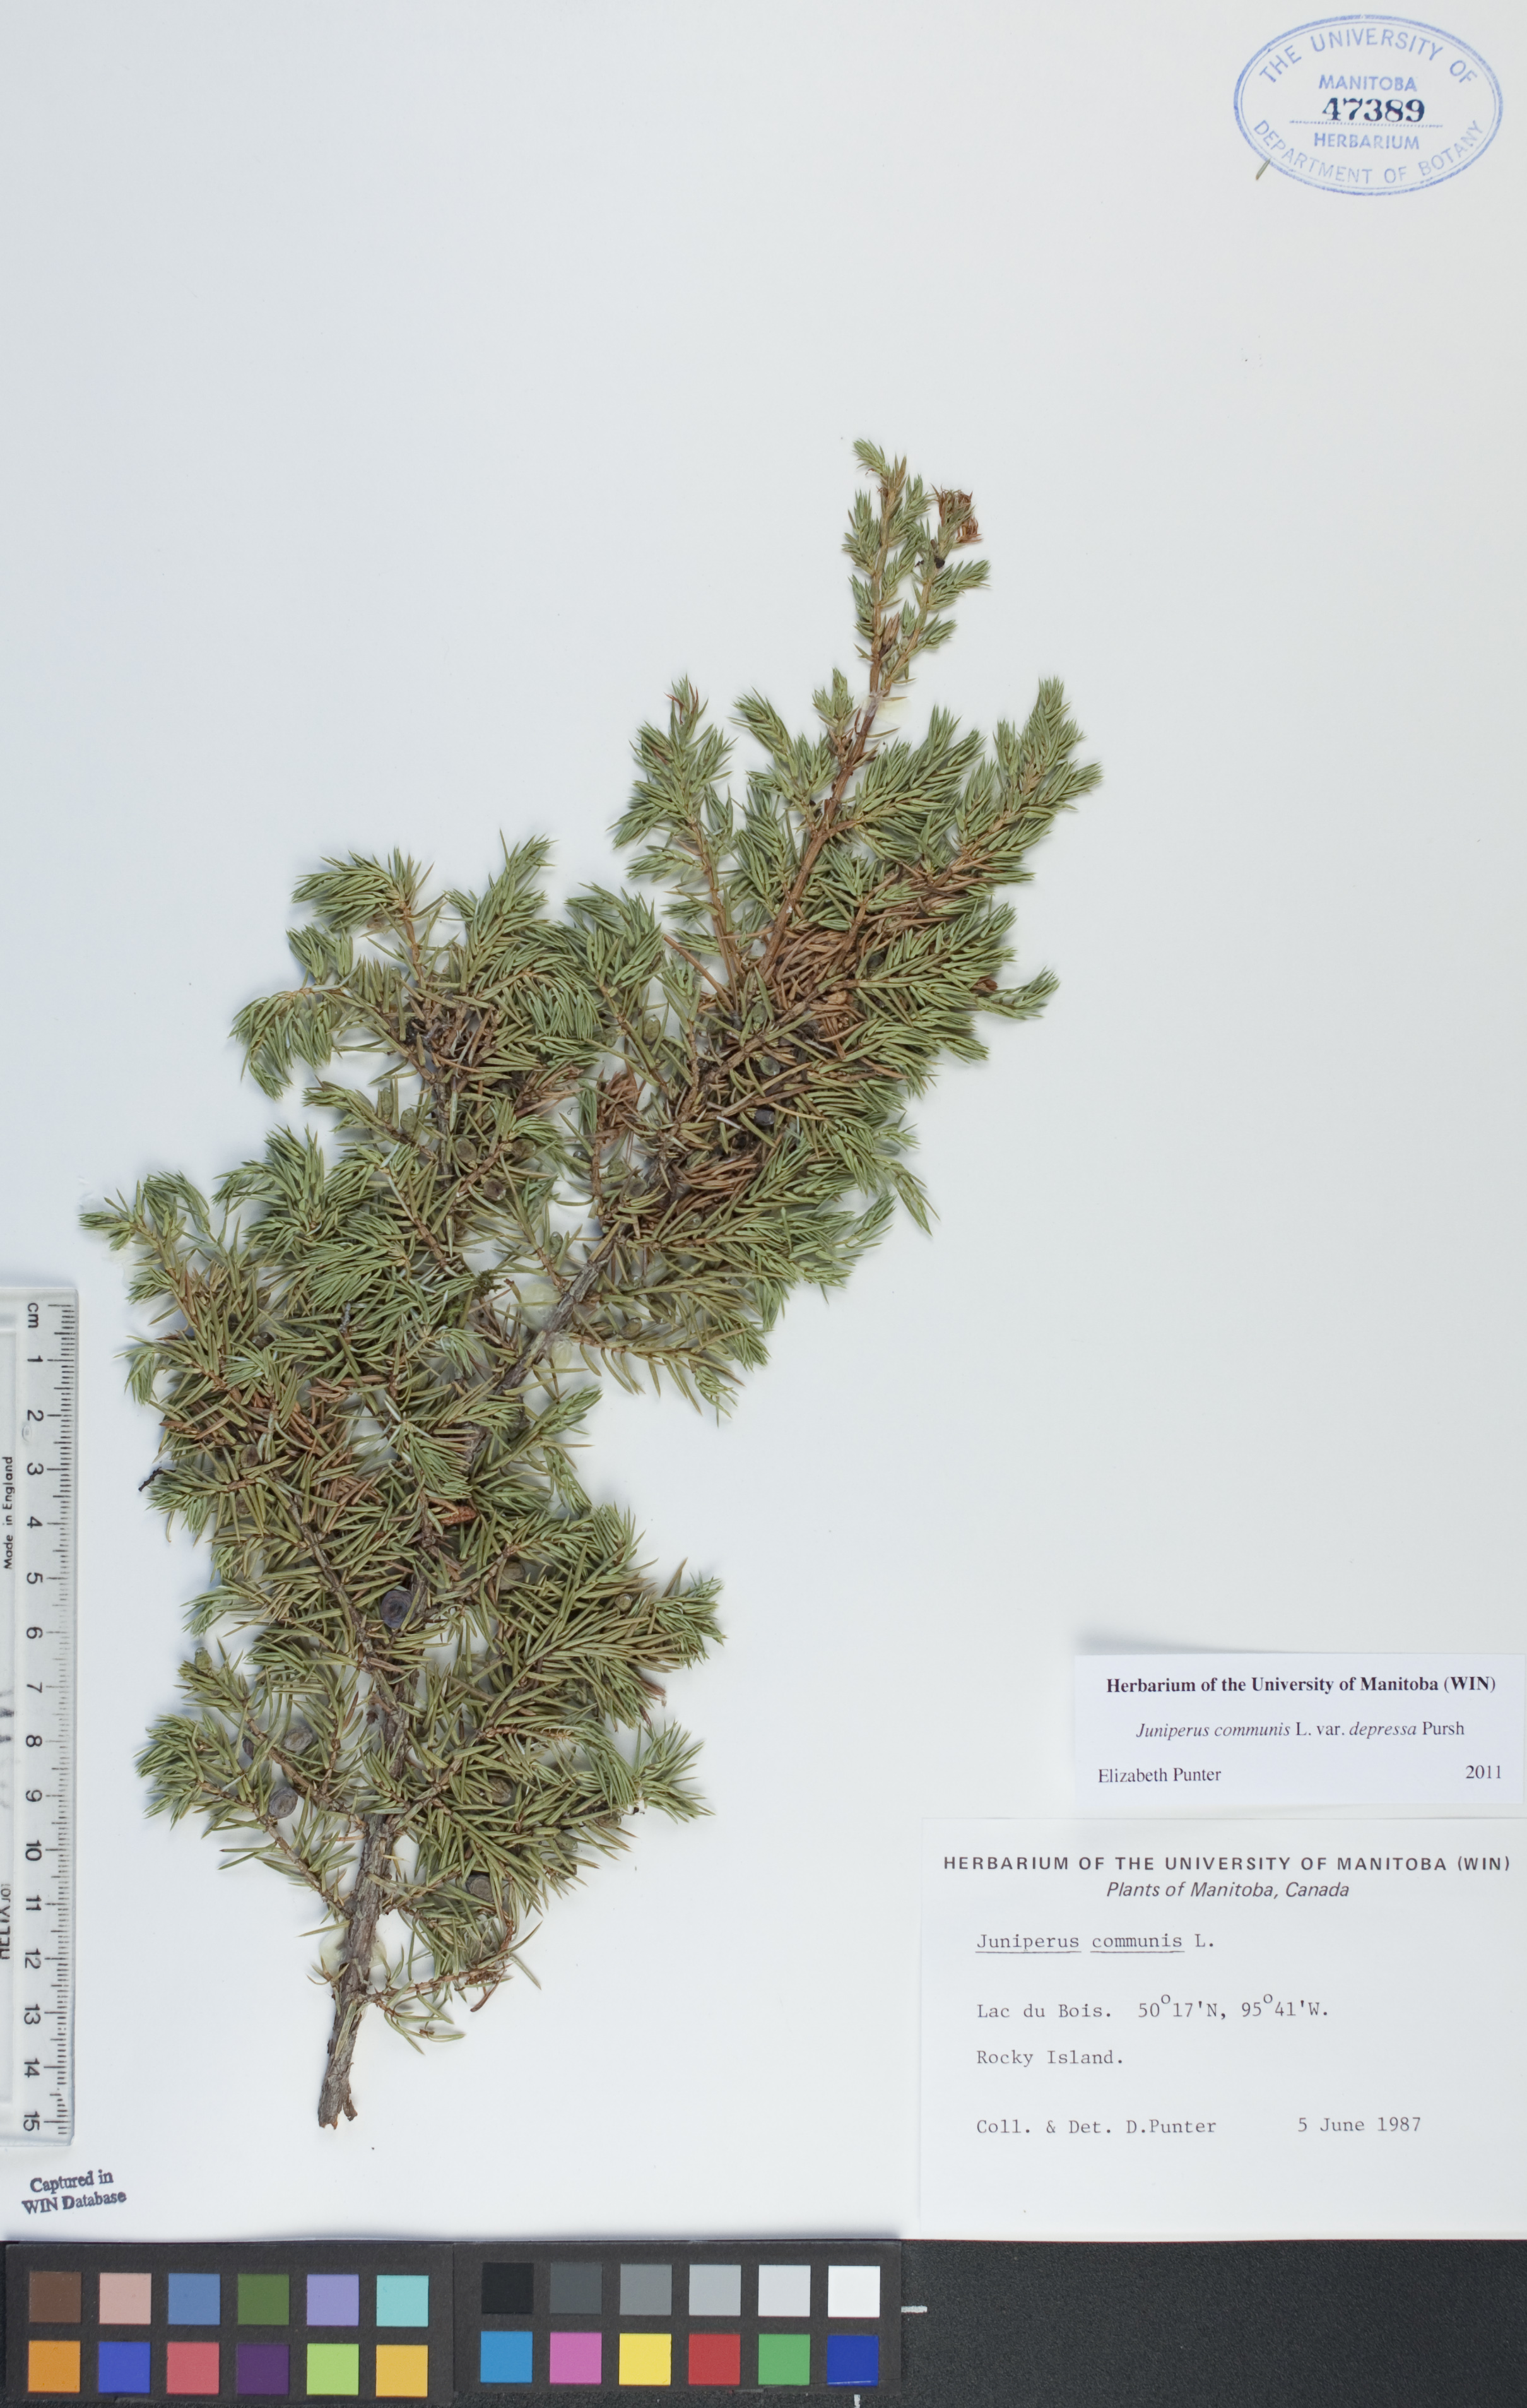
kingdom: Plantae
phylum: Tracheophyta
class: Pinopsida
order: Pinales
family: Cupressaceae
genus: Juniperus
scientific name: Juniperus communis
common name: Common juniper
